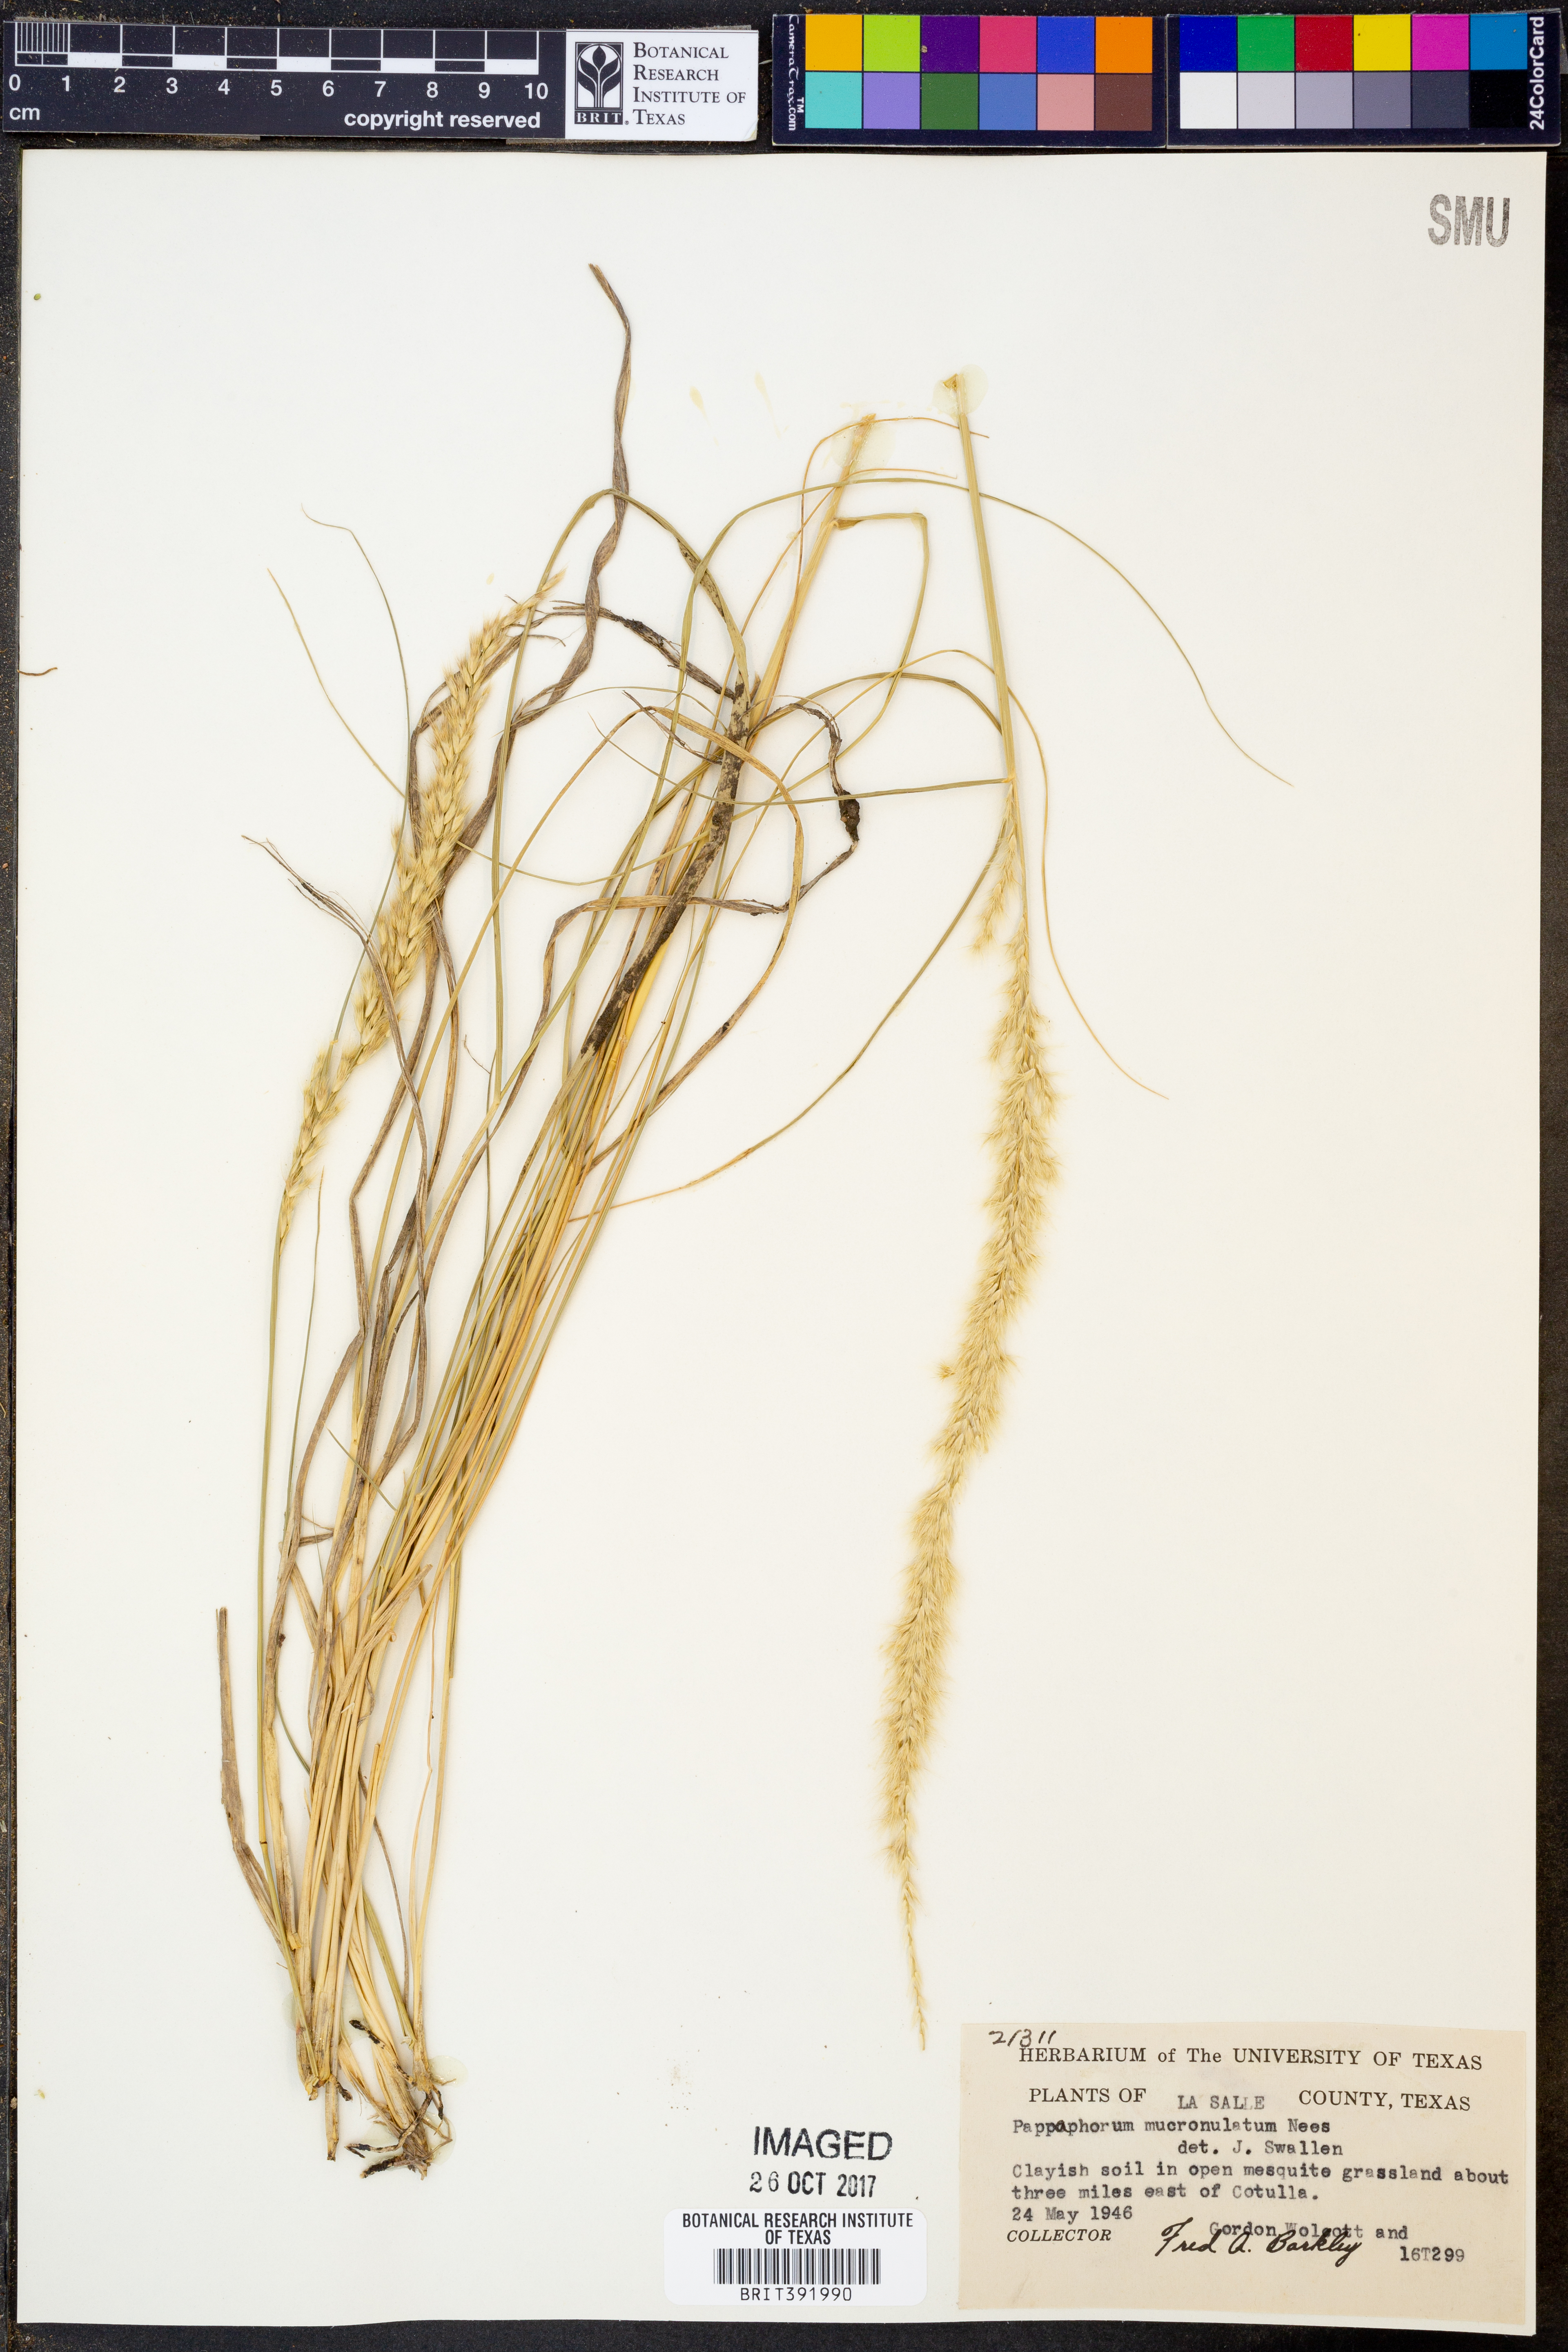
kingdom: Plantae
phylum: Tracheophyta
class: Liliopsida
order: Poales
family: Poaceae
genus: Pappophorum
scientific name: Pappophorum mucronulatum
